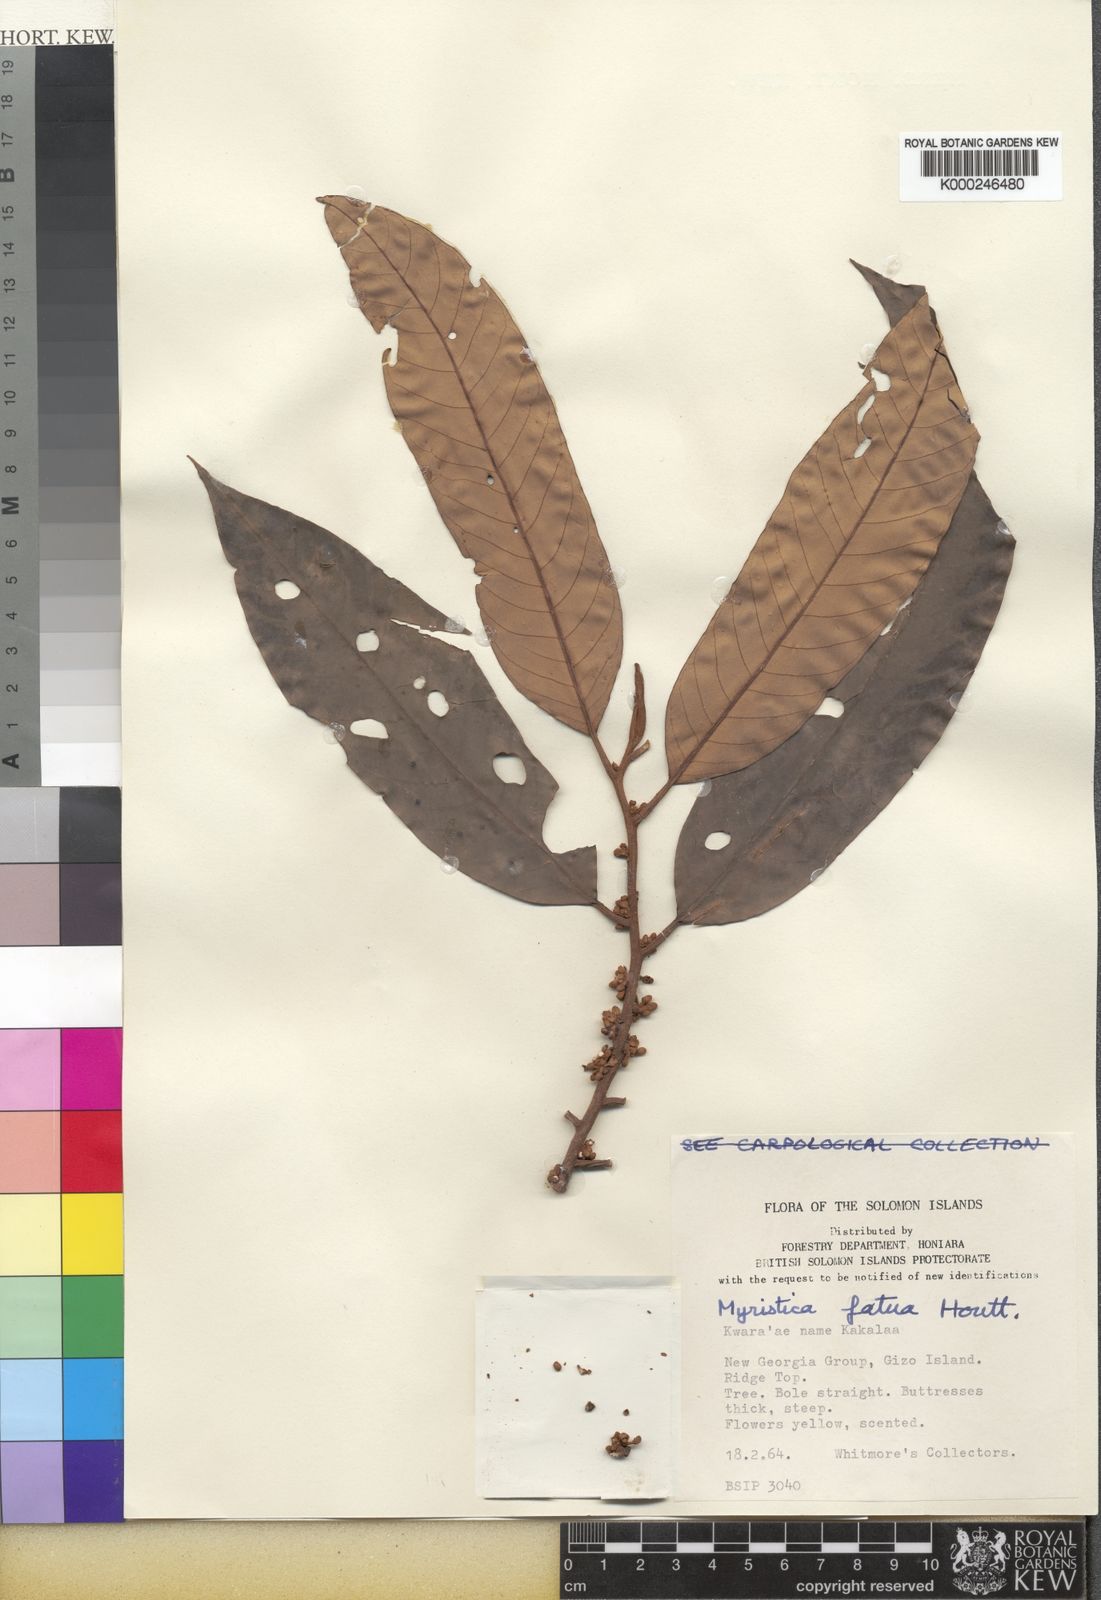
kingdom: Plantae
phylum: Tracheophyta
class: Magnoliopsida
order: Magnoliales
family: Myristicaceae
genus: Myristica
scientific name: Myristica fatua
